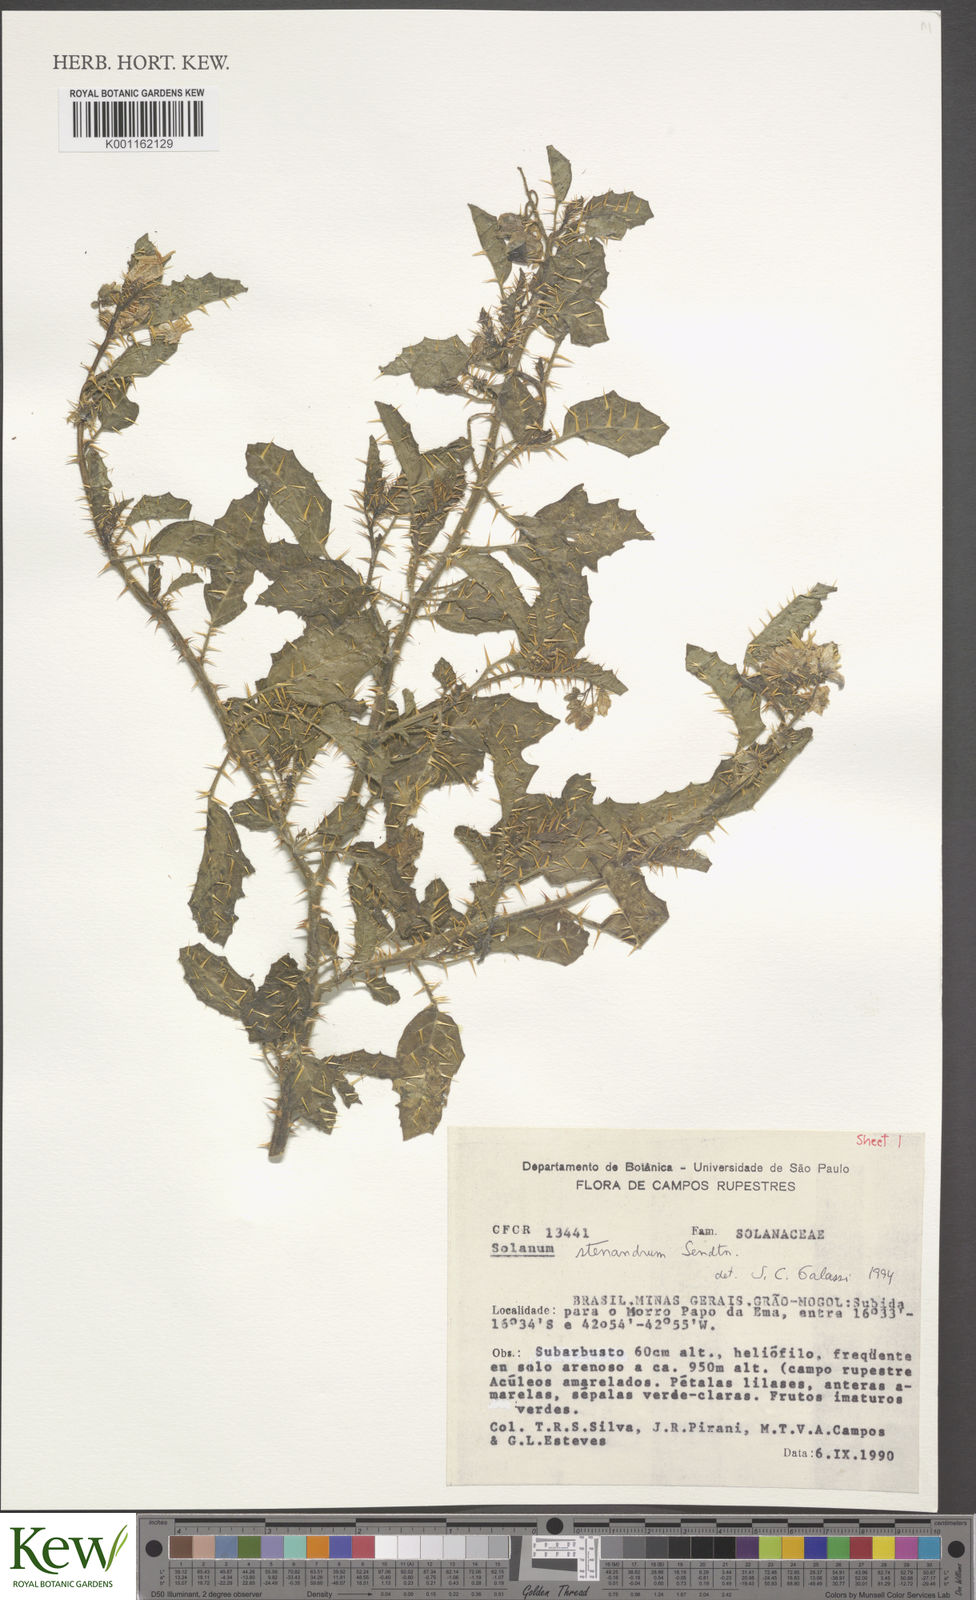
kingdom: Plantae
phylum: Tracheophyta
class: Magnoliopsida
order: Solanales
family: Solanaceae
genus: Solanum
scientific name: Solanum stenandrum
